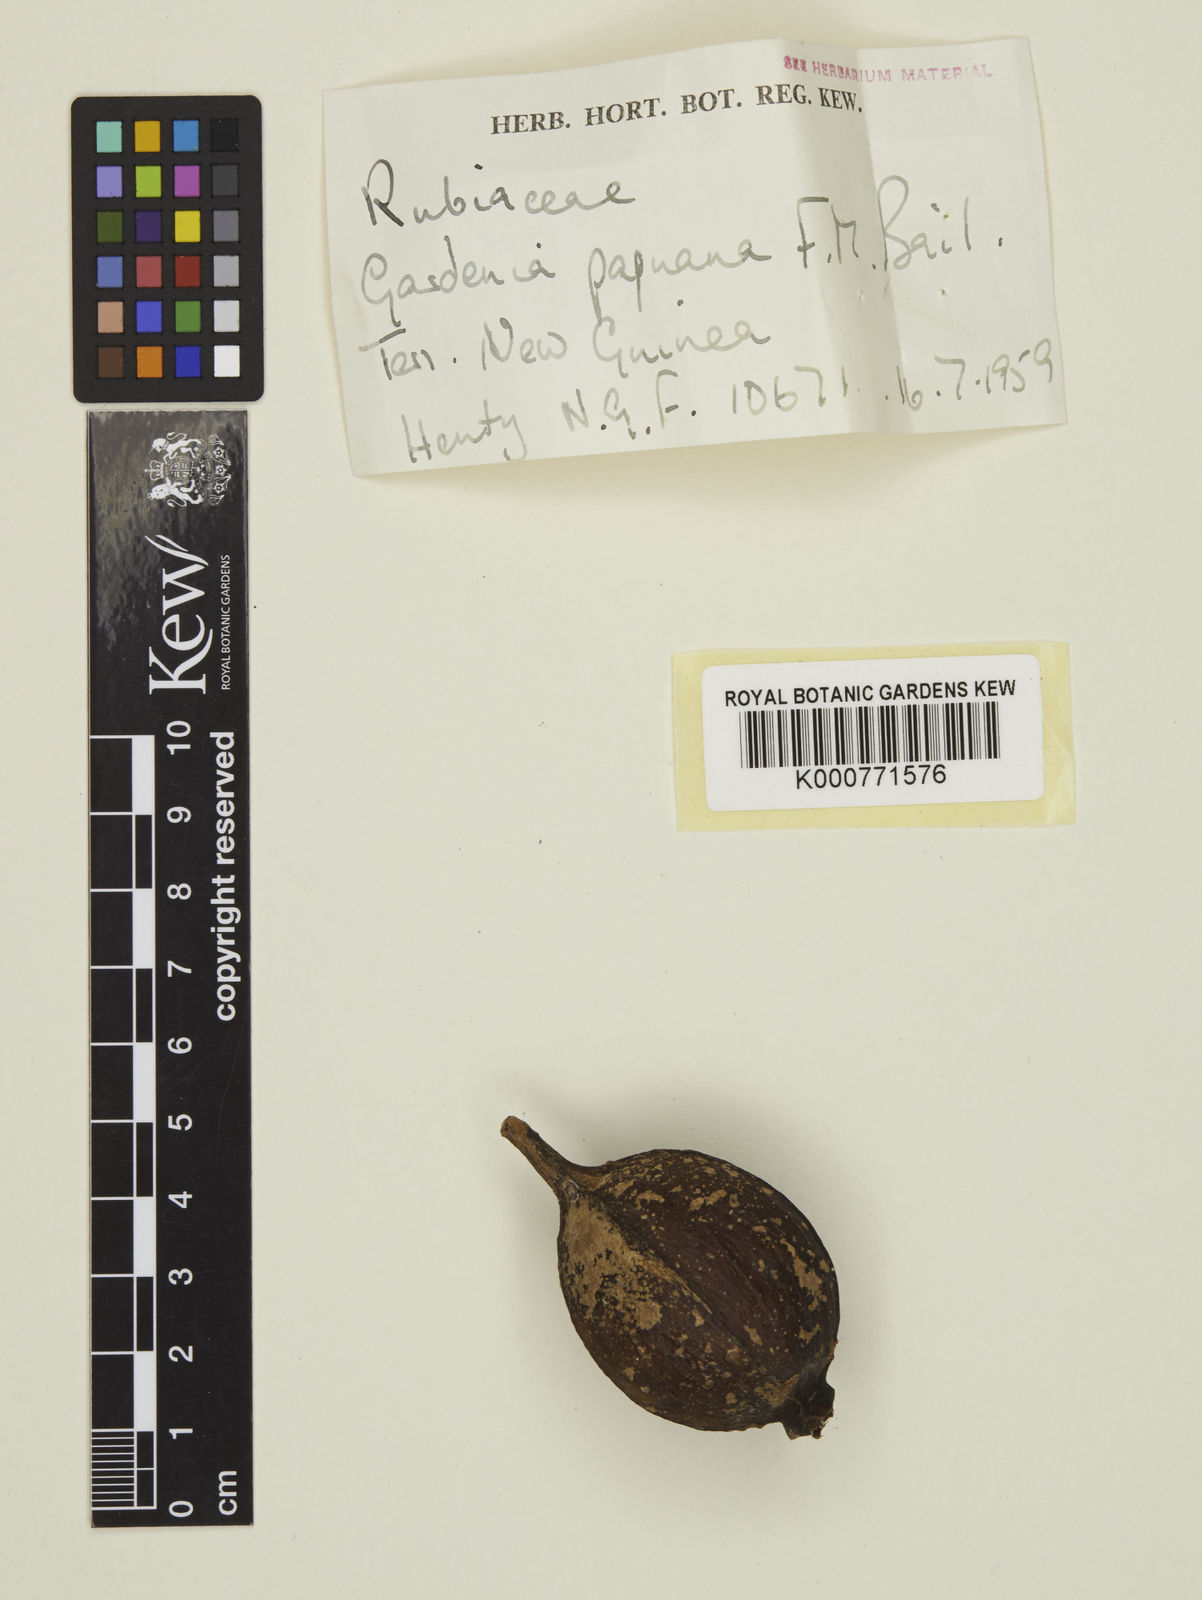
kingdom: Plantae
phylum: Tracheophyta
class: Magnoliopsida
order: Gentianales
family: Rubiaceae
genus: Gardenia
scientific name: Gardenia hansemannii
